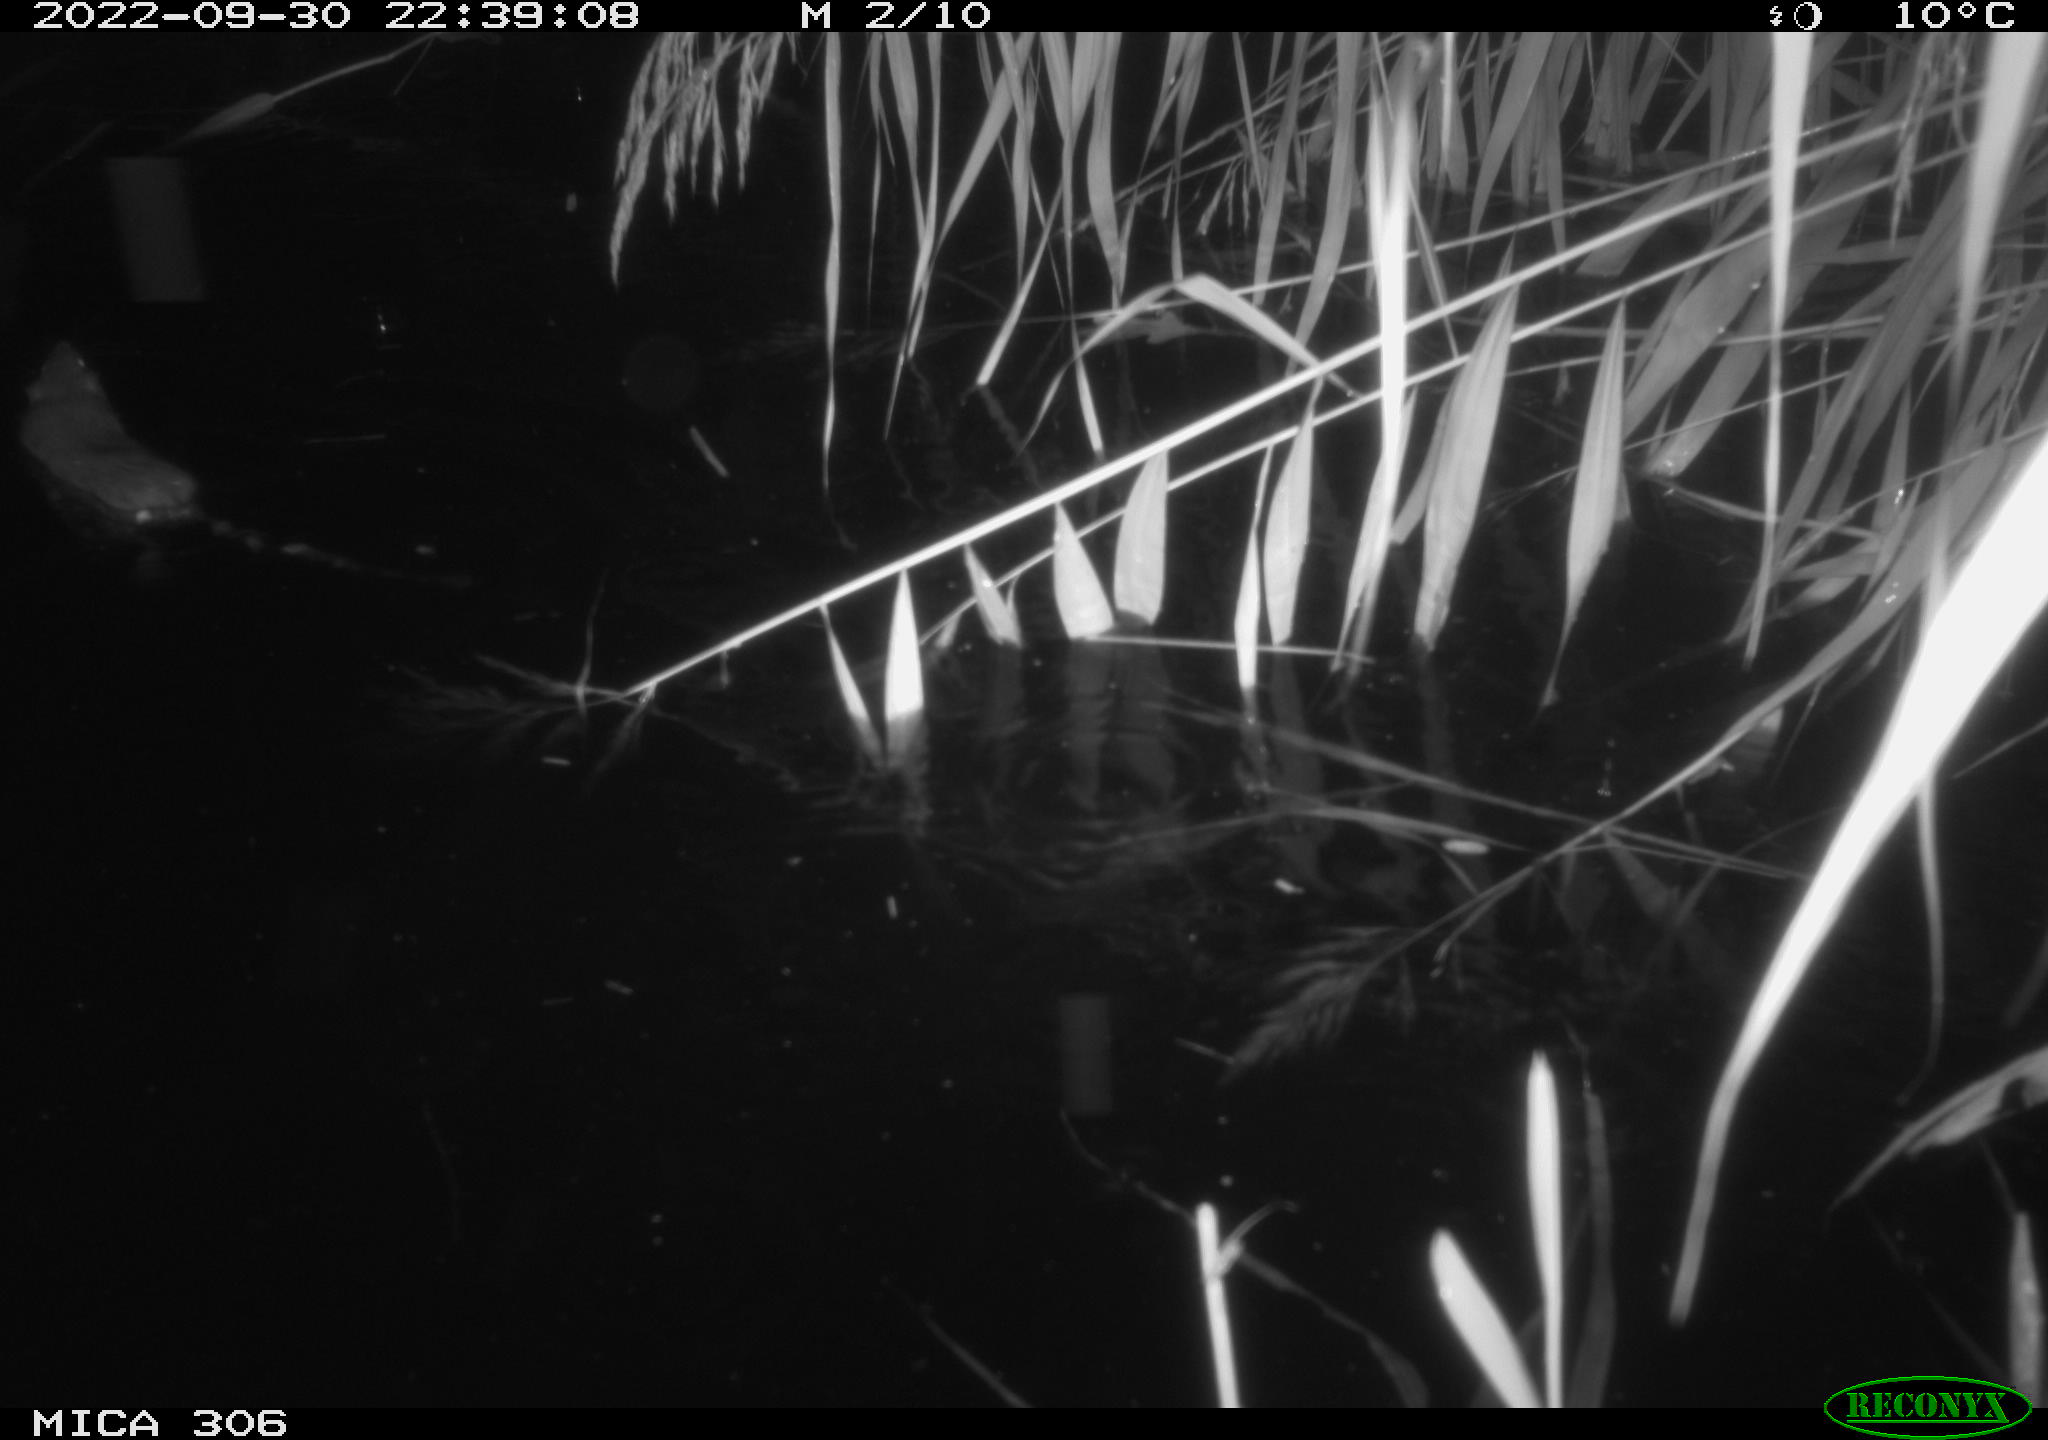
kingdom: Animalia
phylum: Chordata
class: Mammalia
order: Rodentia
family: Muridae
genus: Rattus
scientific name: Rattus norvegicus
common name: Brown rat
